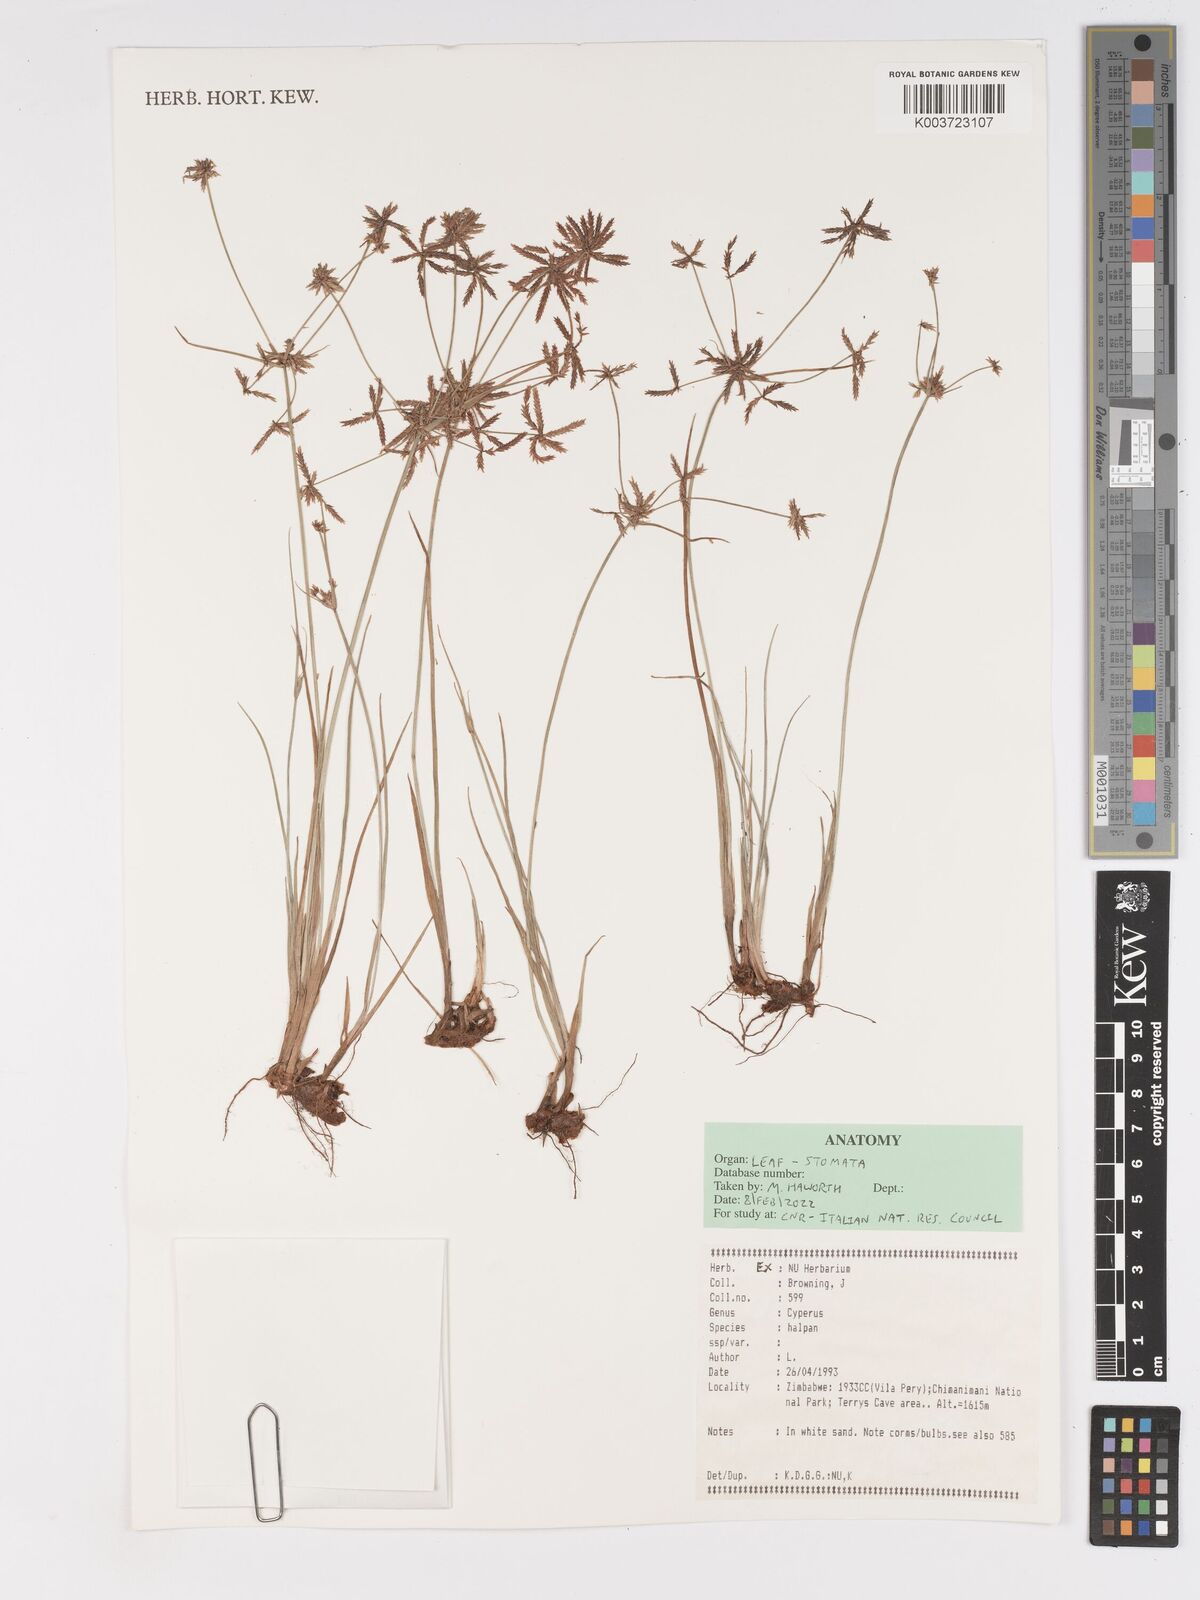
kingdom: Plantae
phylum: Tracheophyta
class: Liliopsida
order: Poales
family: Cyperaceae
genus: Cyperus
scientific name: Cyperus haspan
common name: Haspan flatsedge
